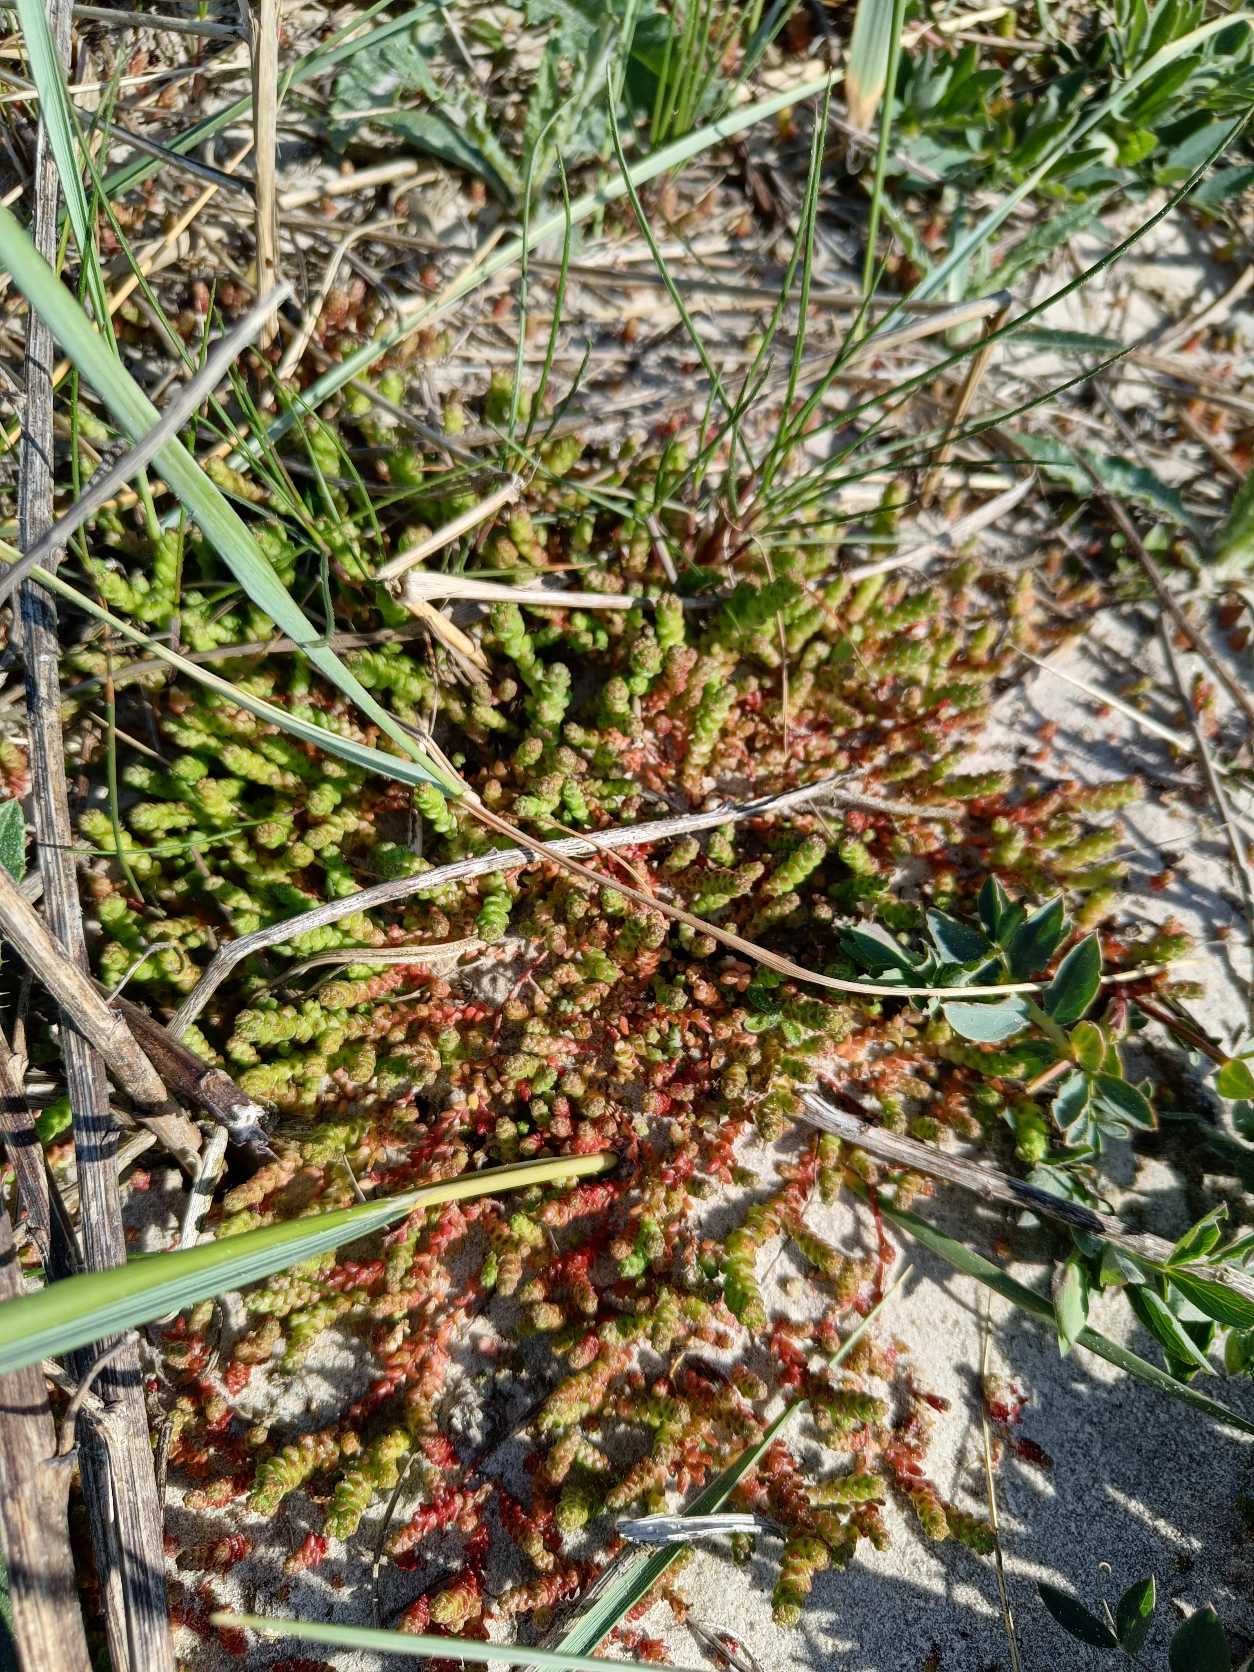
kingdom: Plantae
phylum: Tracheophyta
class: Magnoliopsida
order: Saxifragales
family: Crassulaceae
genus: Sedum
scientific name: Sedum acre
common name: Bidende stenurt
